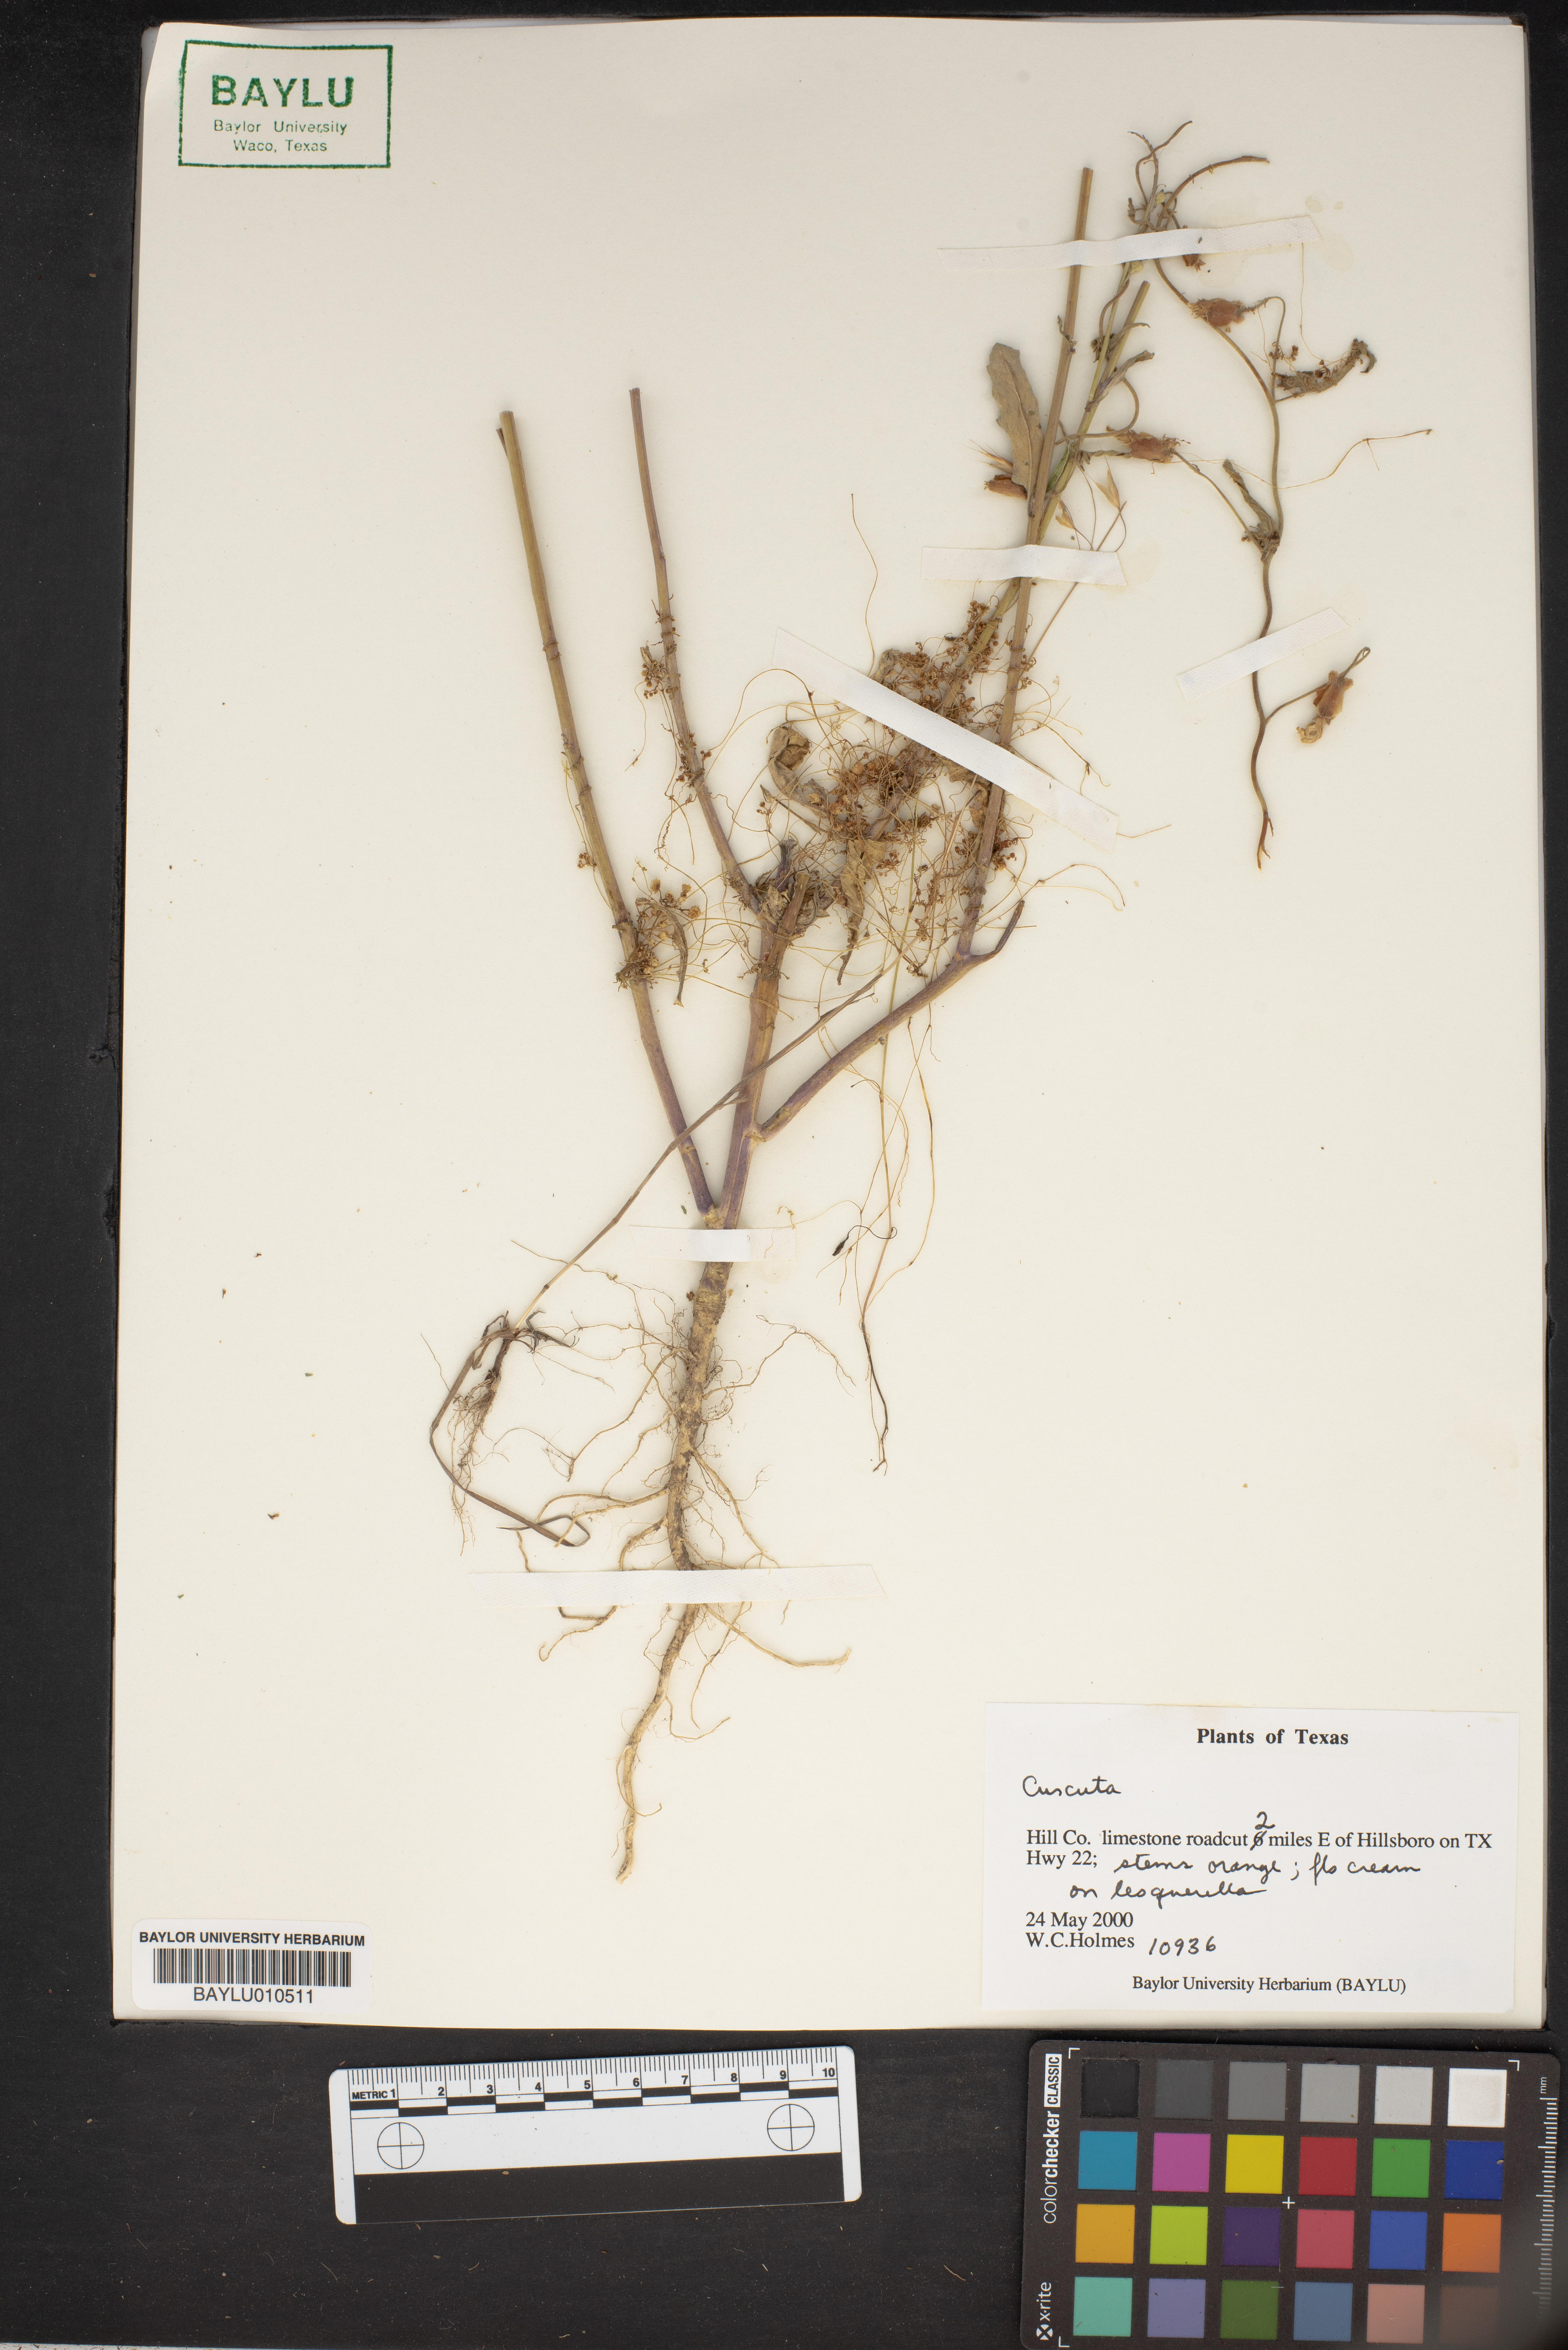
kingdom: Plantae
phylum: Tracheophyta
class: Magnoliopsida
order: Solanales
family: Convolvulaceae
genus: Cuscuta
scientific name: Cuscuta
